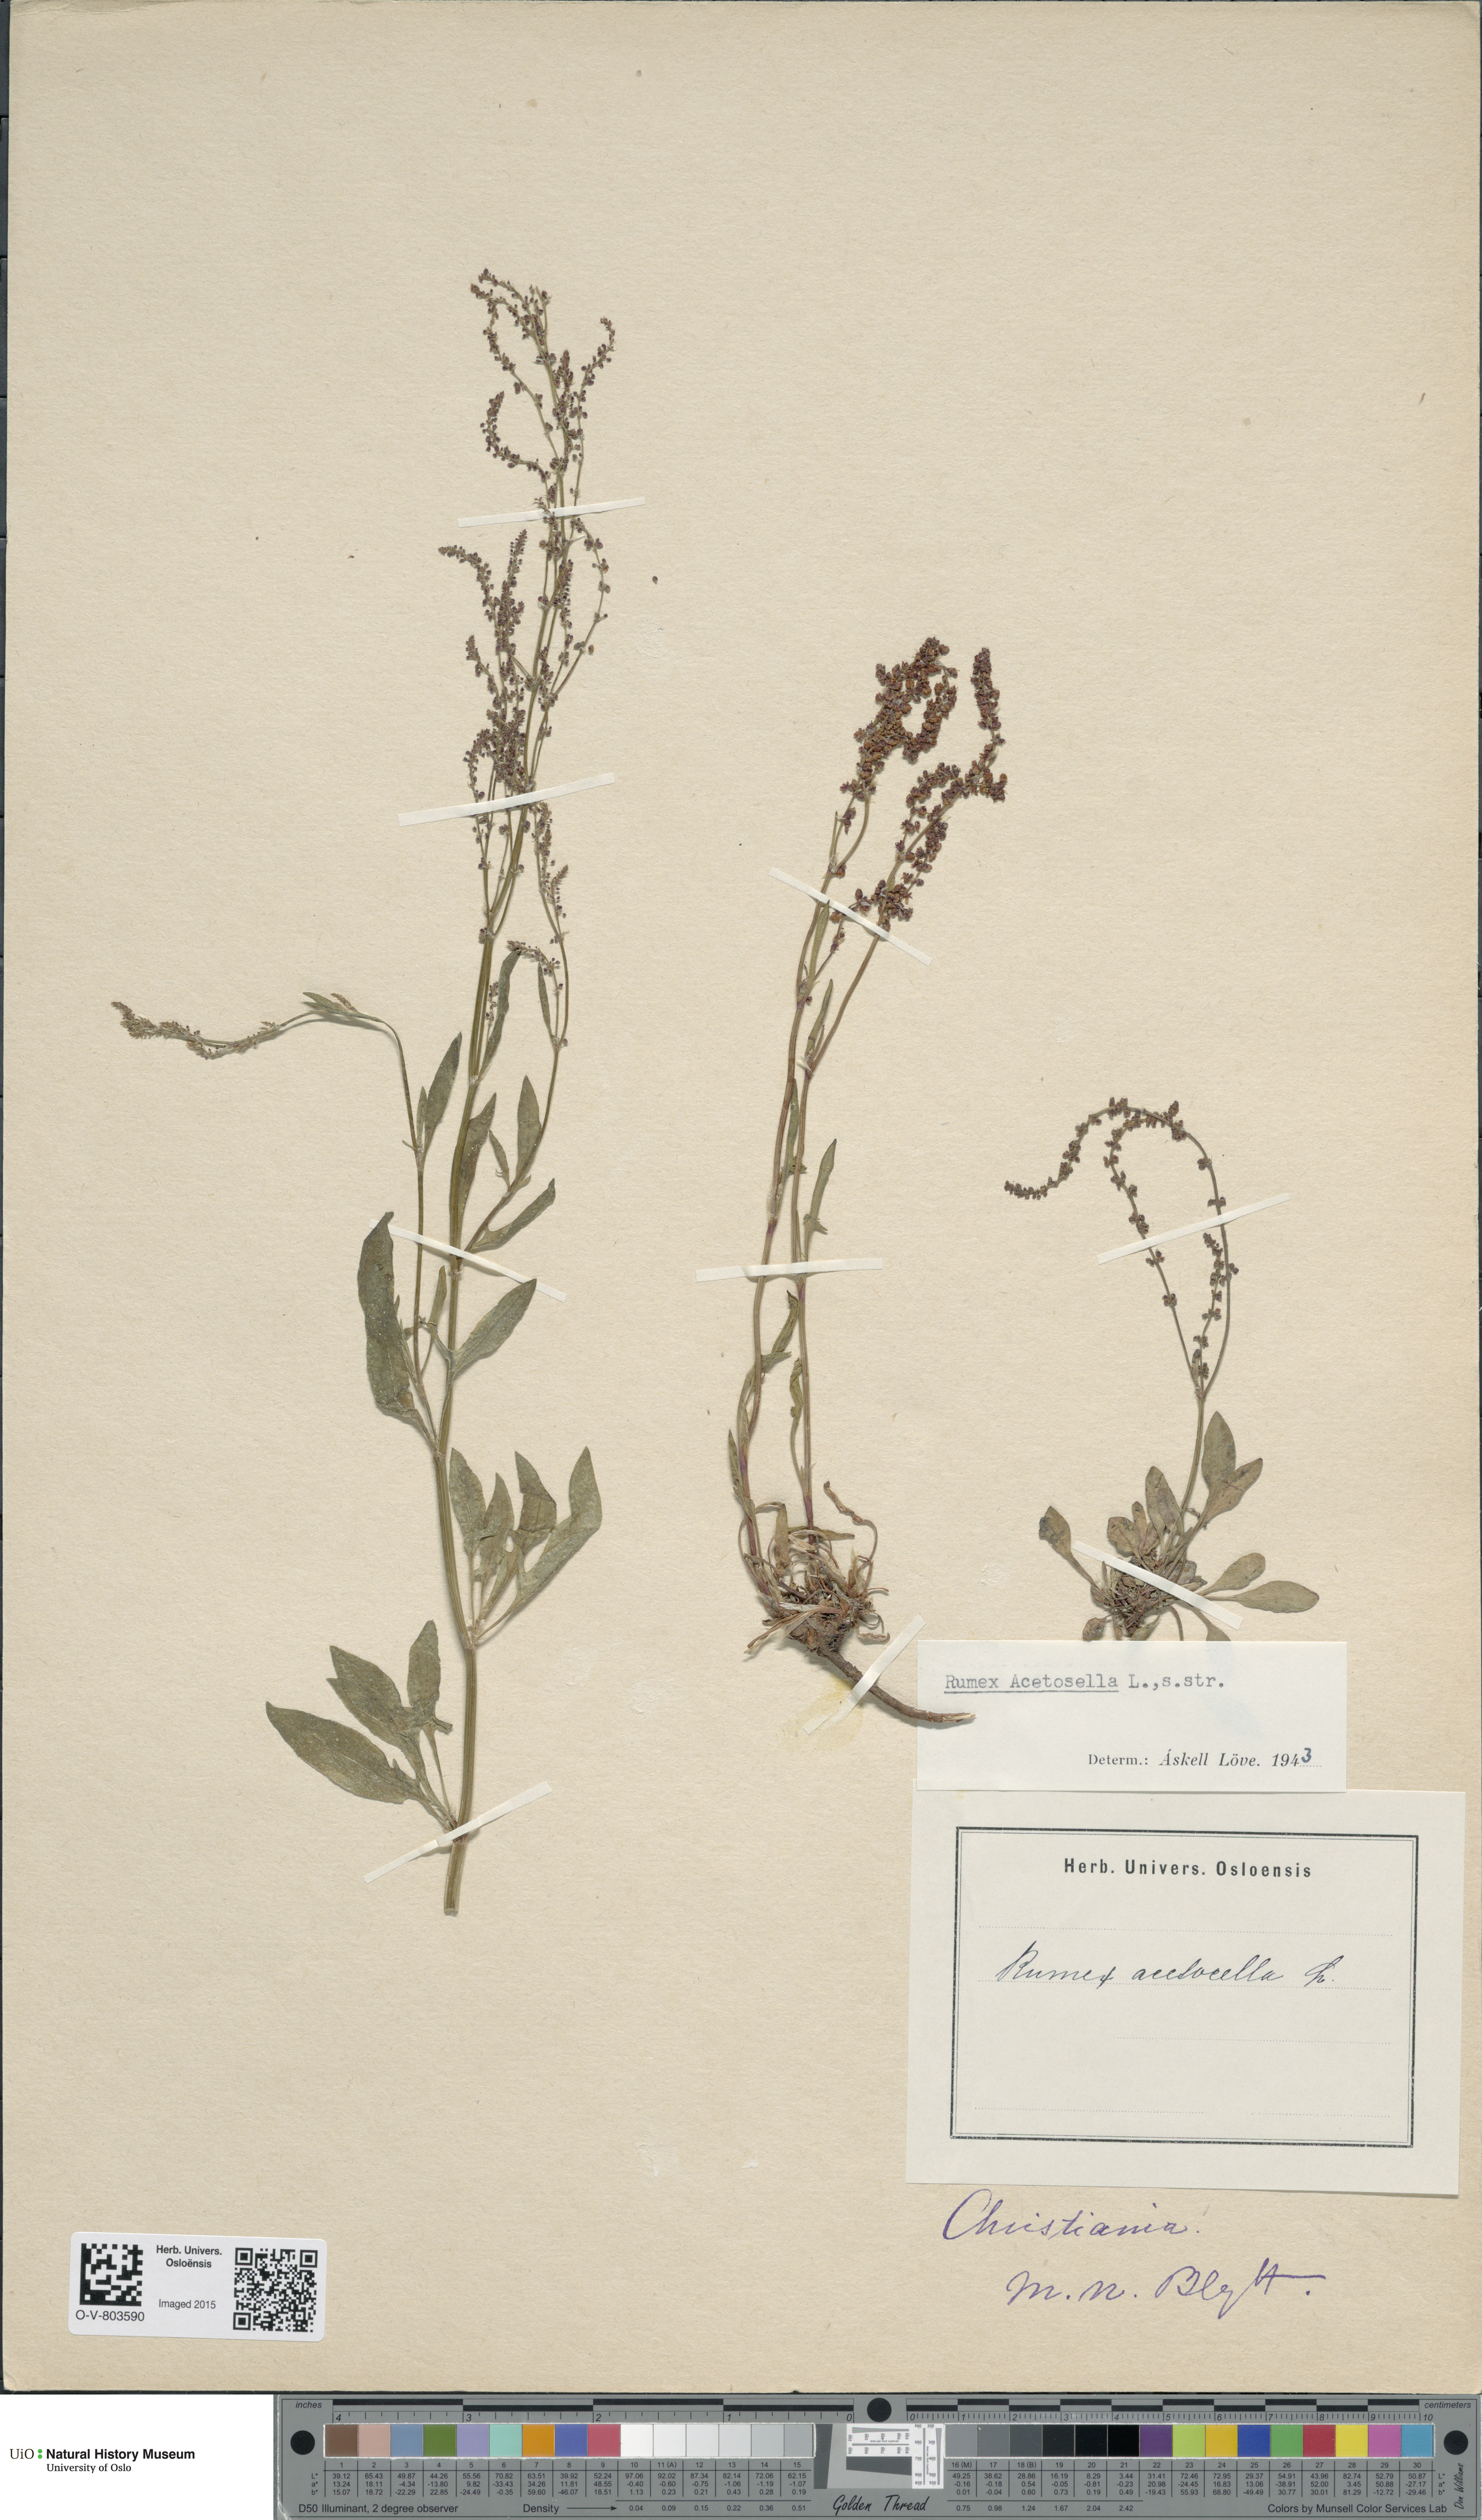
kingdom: Plantae
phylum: Tracheophyta
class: Magnoliopsida
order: Caryophyllales
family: Polygonaceae
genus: Rumex
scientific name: Rumex acetosella
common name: Common sheep sorrel
